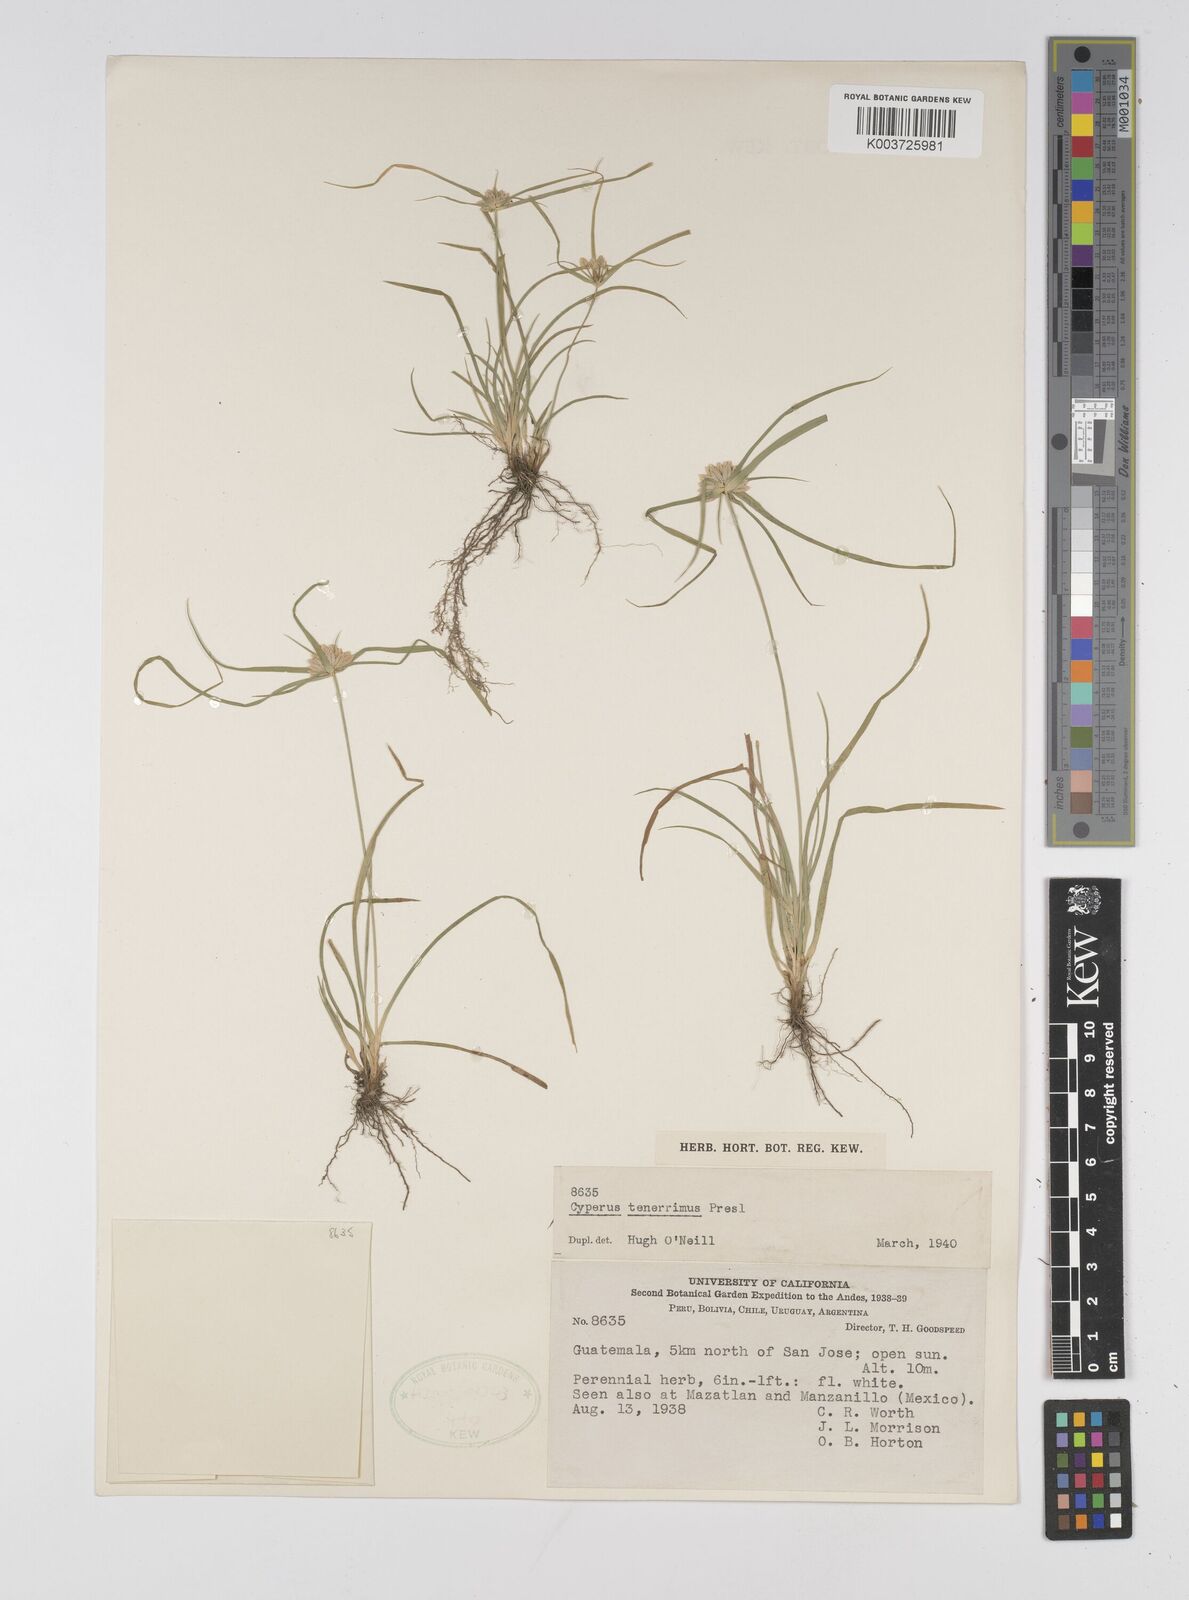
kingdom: Plantae
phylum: Tracheophyta
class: Liliopsida
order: Poales
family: Cyperaceae
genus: Cyperus
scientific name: Cyperus tenerrimus
